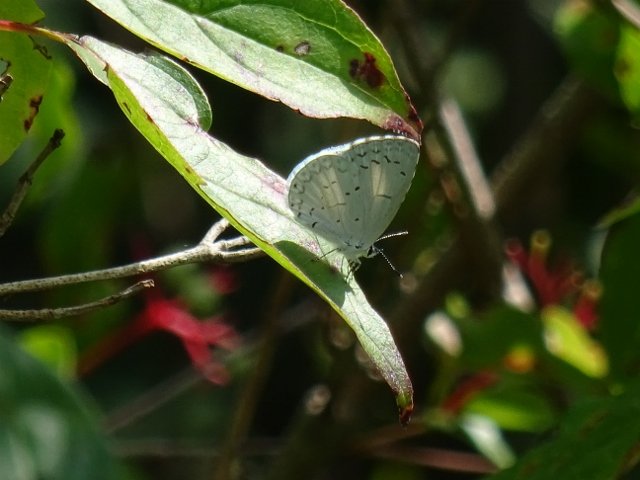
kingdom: Animalia
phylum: Arthropoda
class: Insecta
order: Lepidoptera
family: Lycaenidae
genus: Celastrina
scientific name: Celastrina
